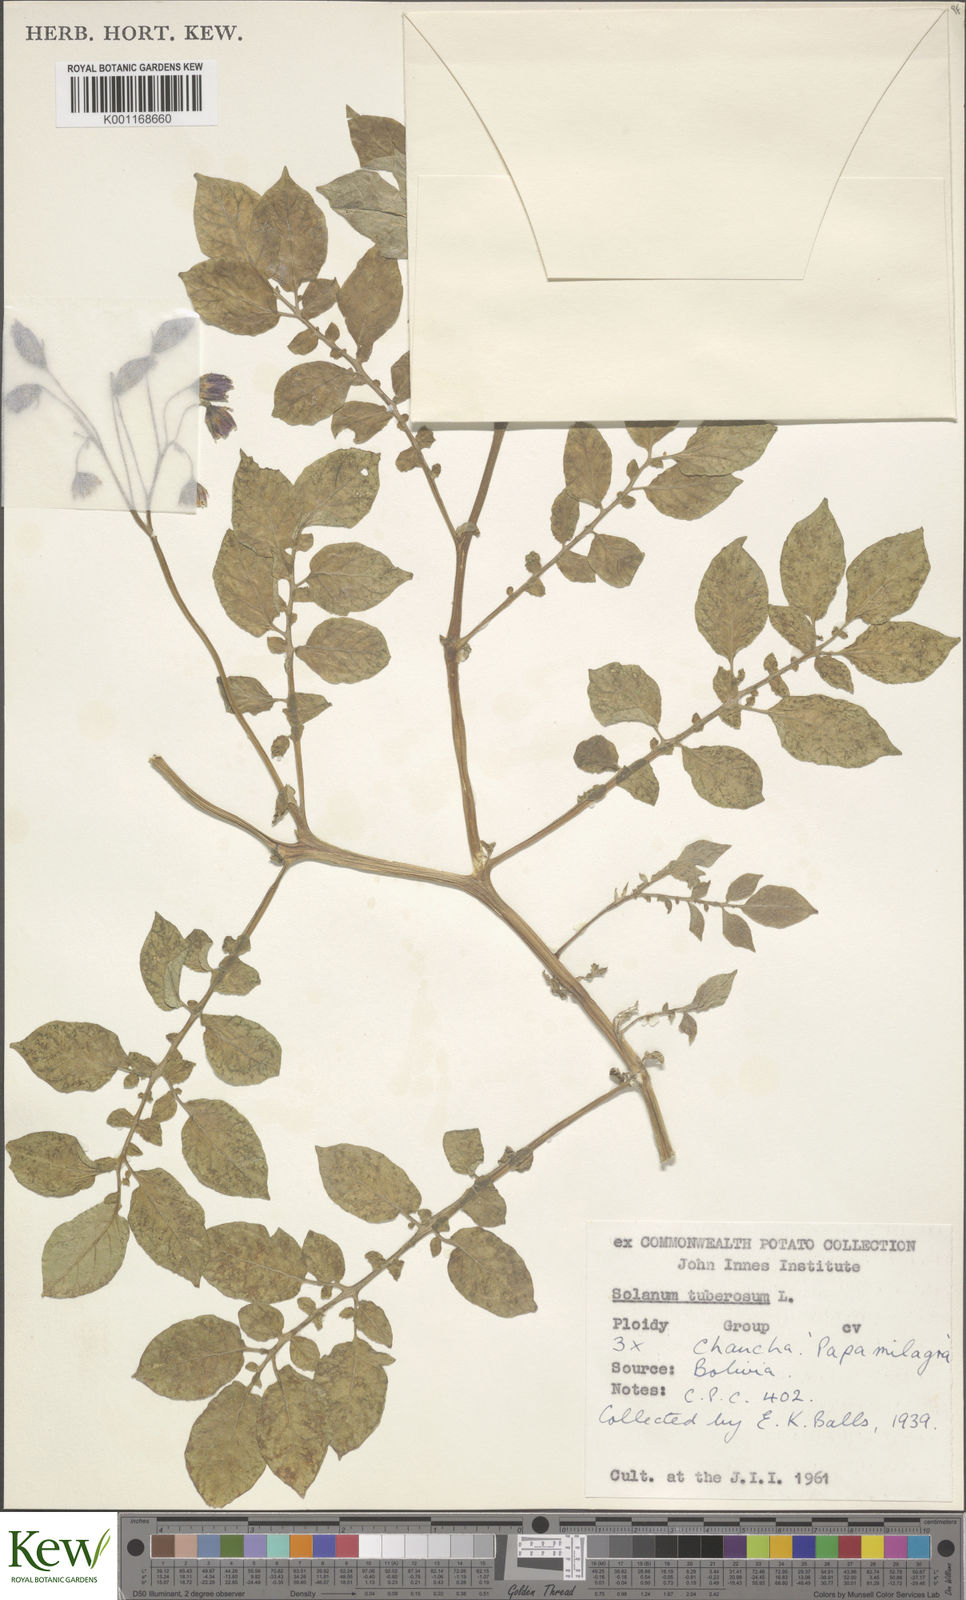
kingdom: Plantae
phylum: Tracheophyta
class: Magnoliopsida
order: Solanales
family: Solanaceae
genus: Solanum
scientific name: Solanum chaucha
